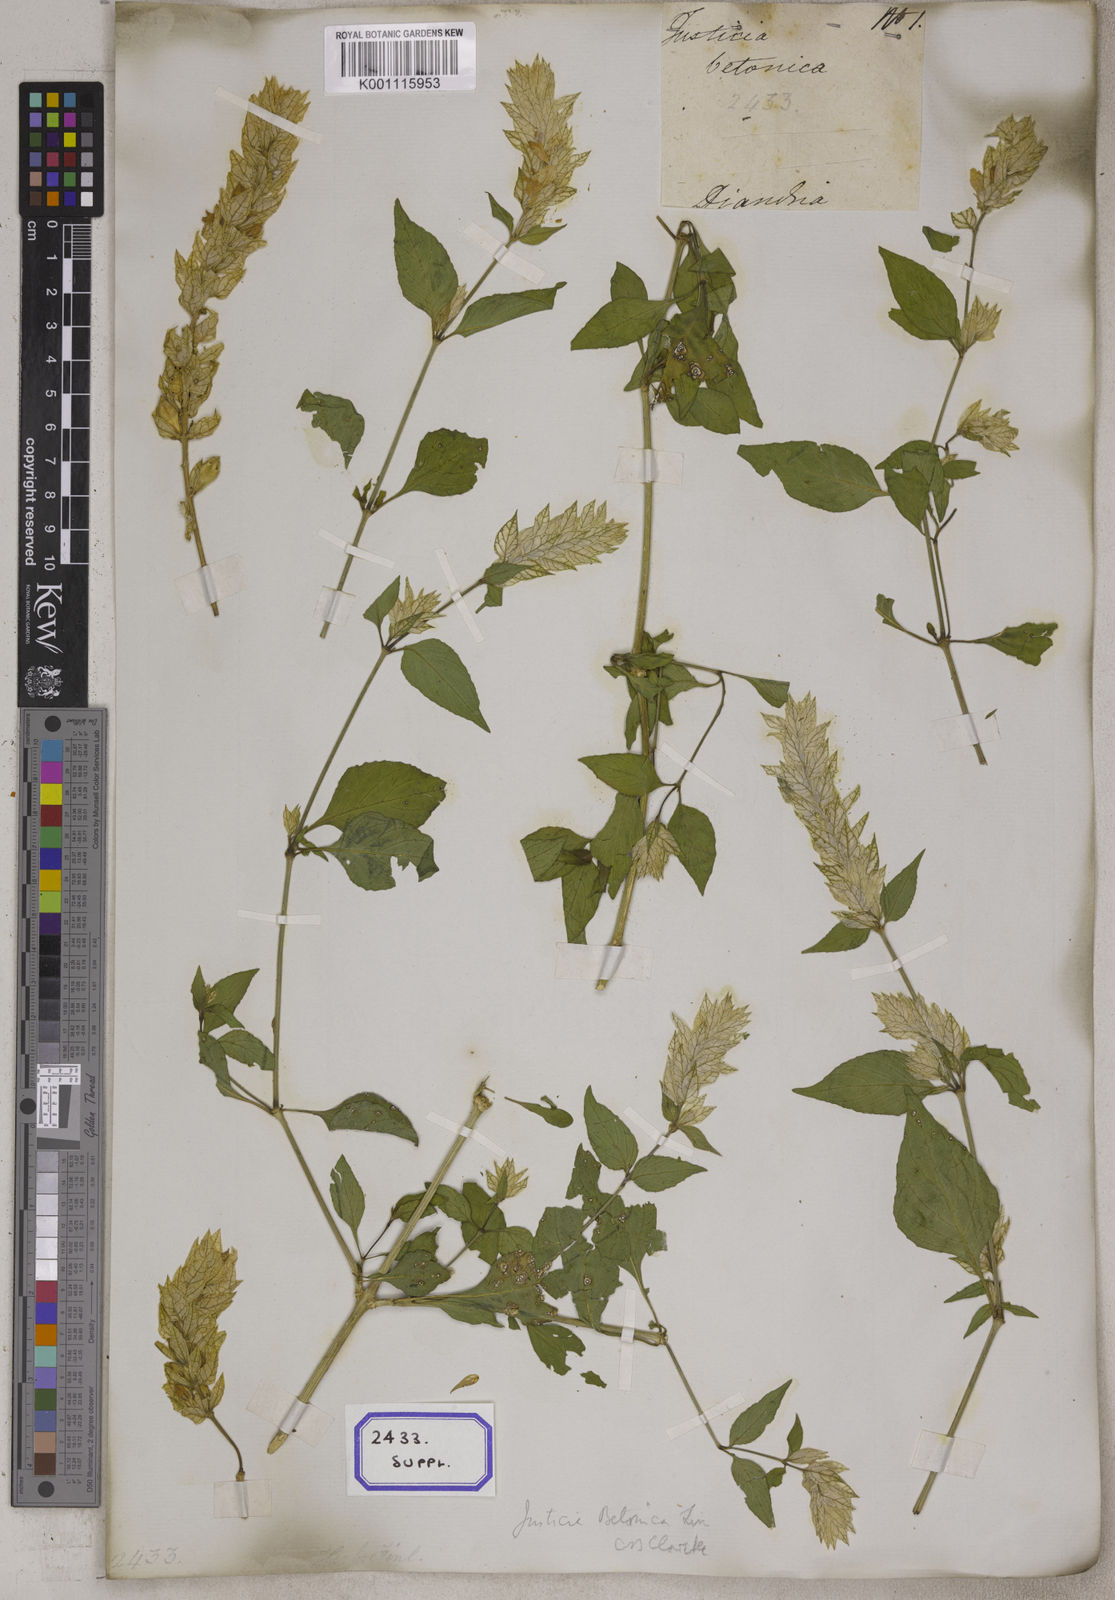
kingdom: Plantae
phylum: Tracheophyta
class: Magnoliopsida
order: Lamiales
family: Acanthaceae
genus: Nicoteba
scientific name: Nicoteba betonica
